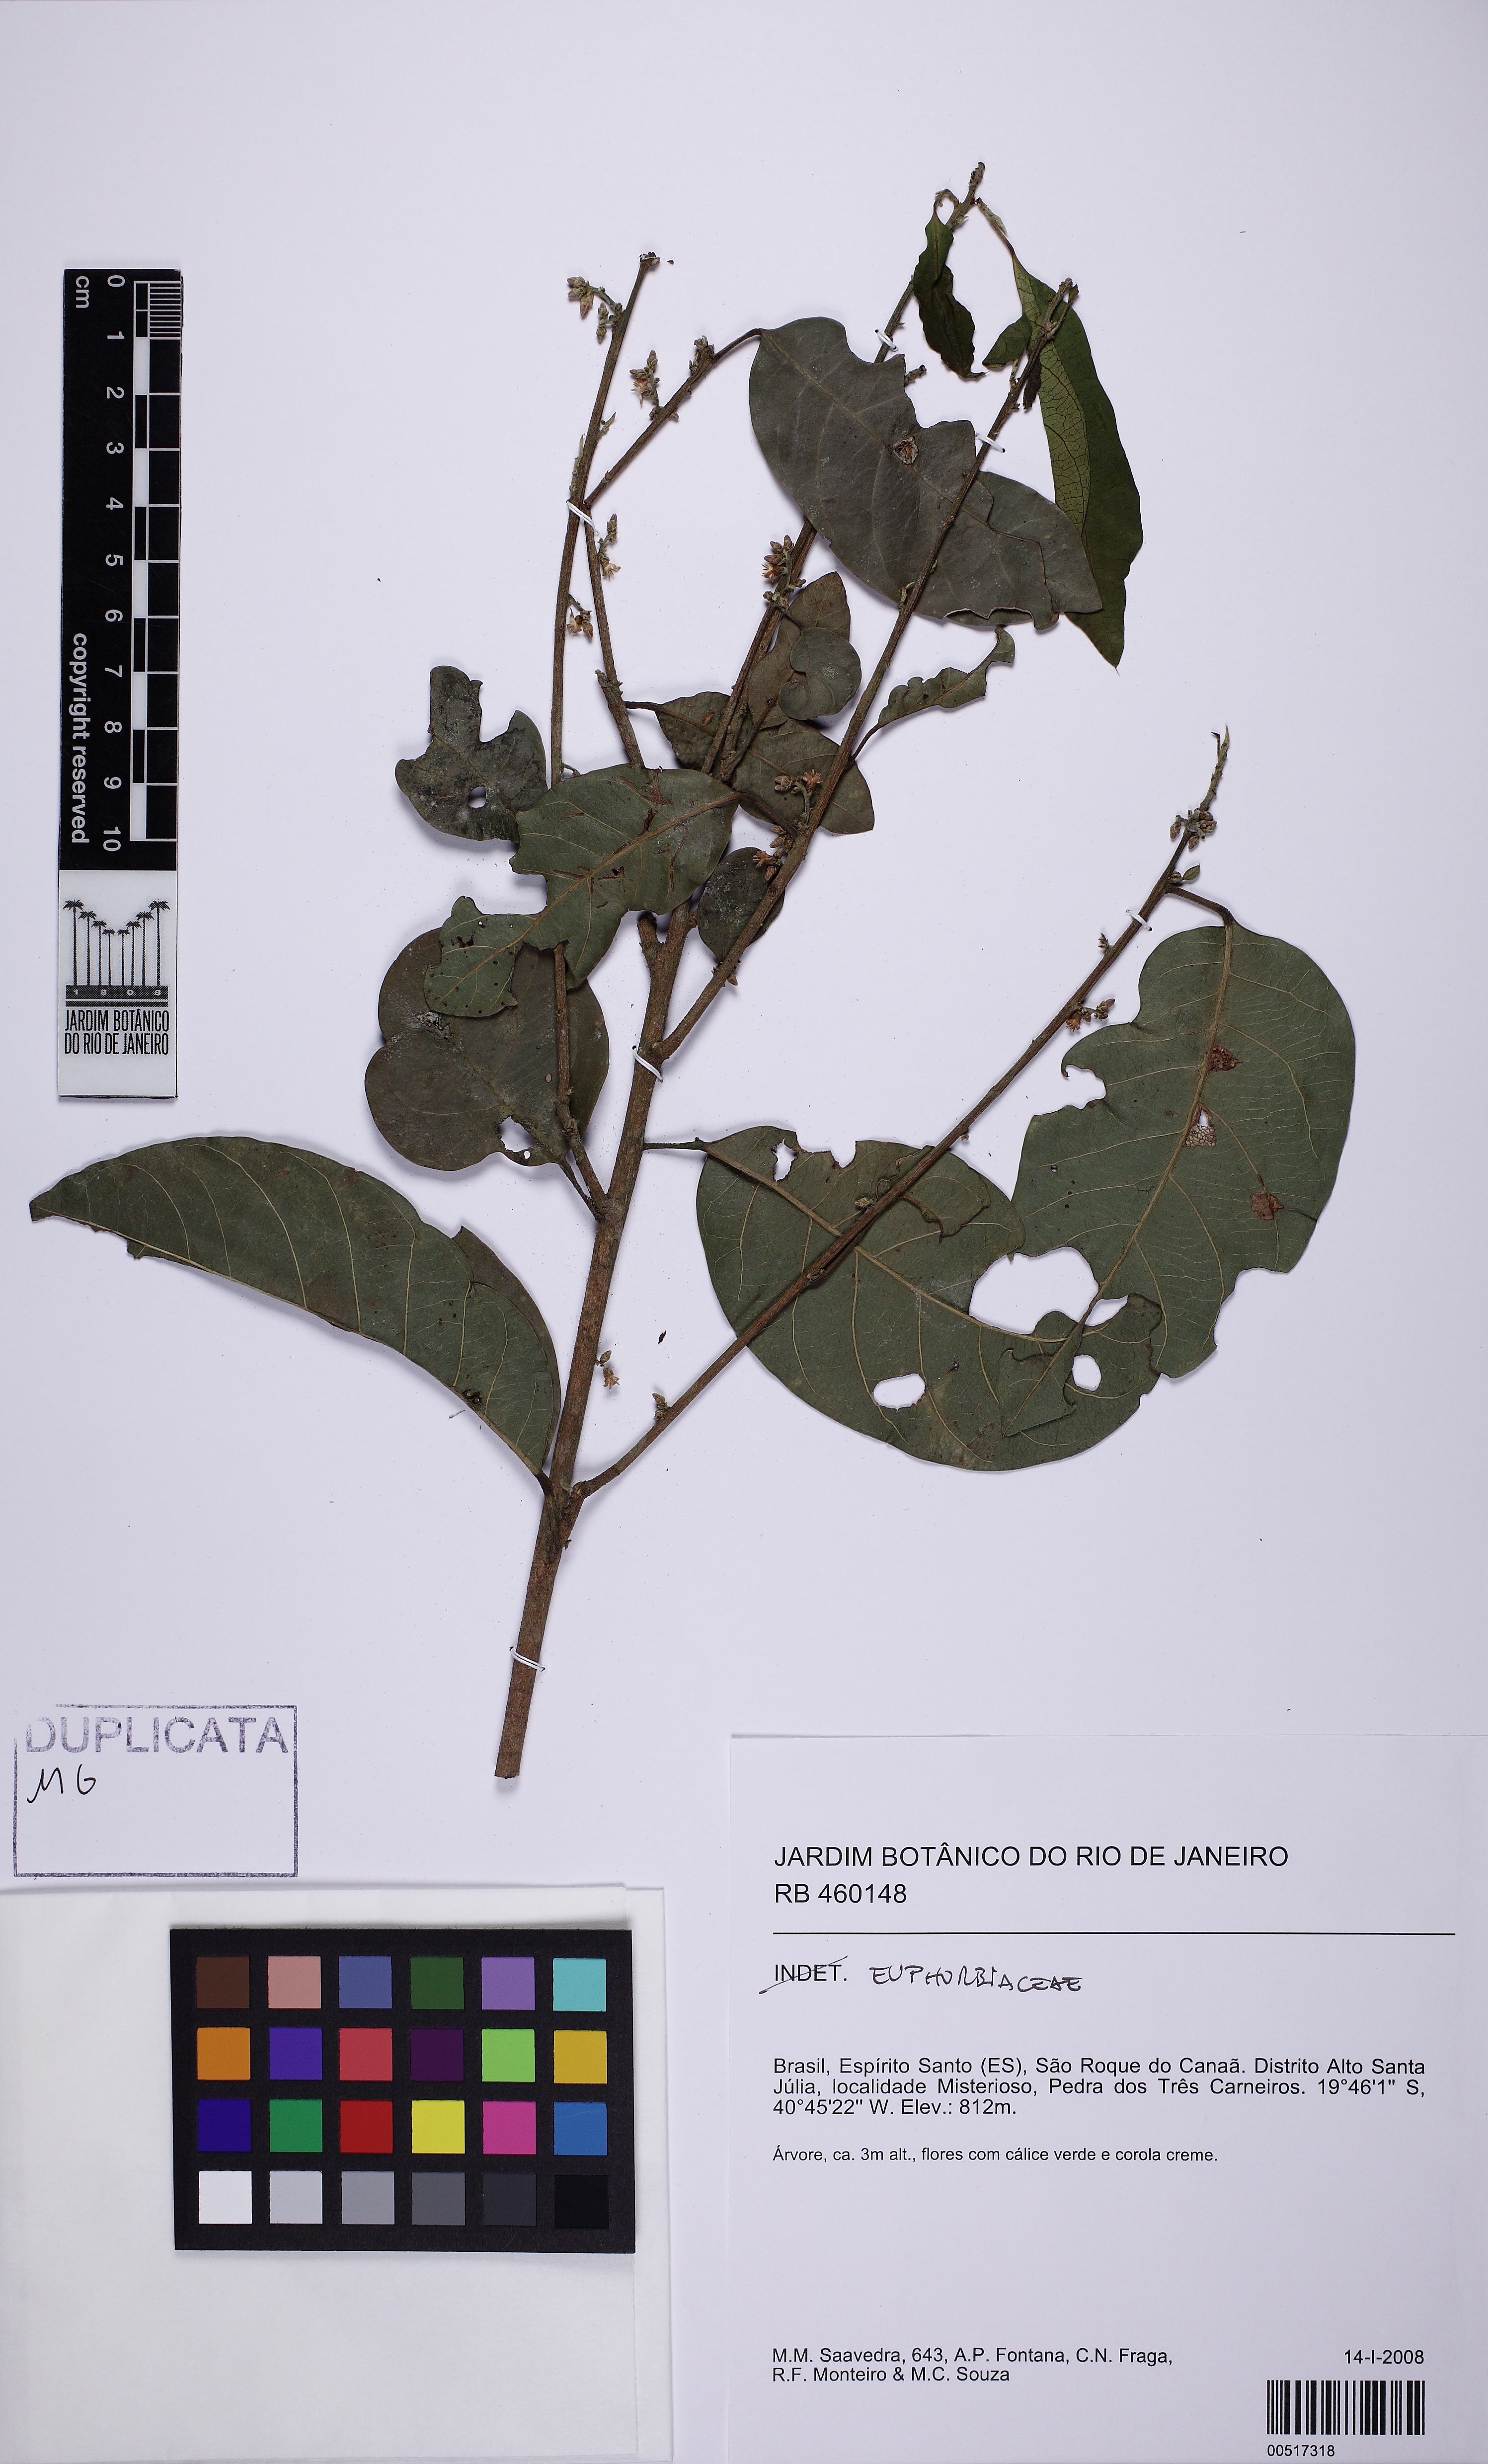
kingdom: Plantae
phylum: Tracheophyta
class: Magnoliopsida
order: Malpighiales
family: Euphorbiaceae
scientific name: Euphorbiaceae
